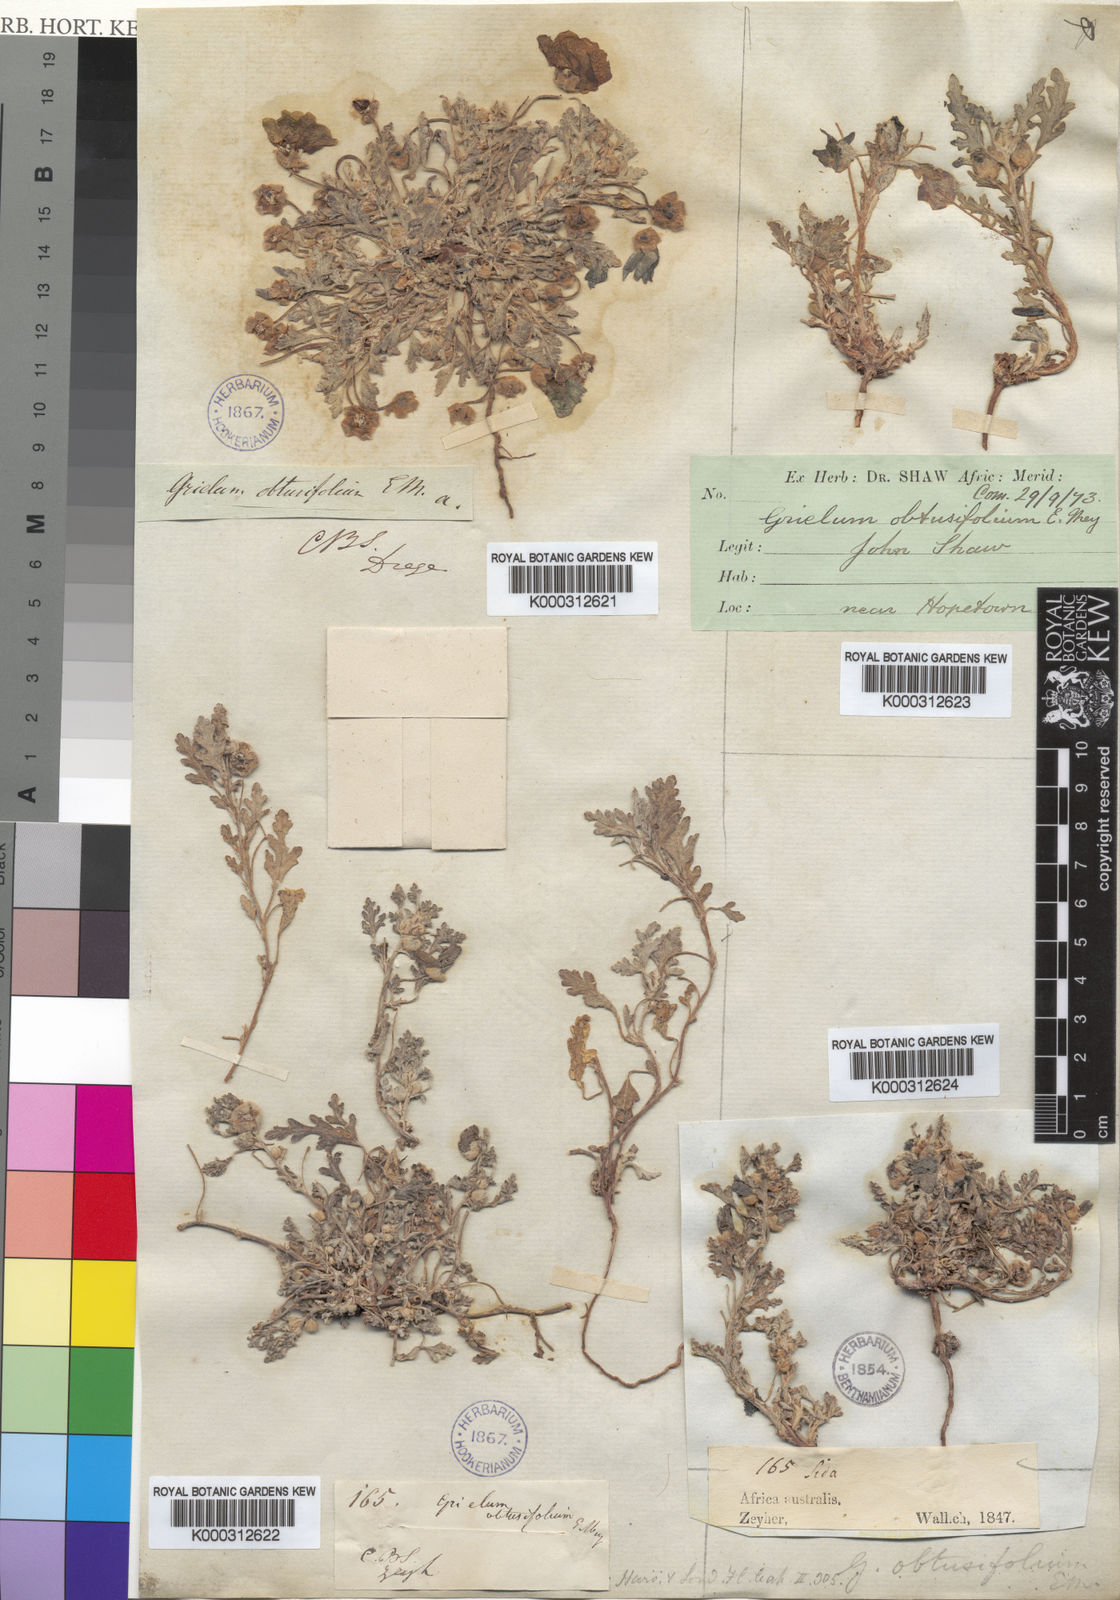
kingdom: Plantae
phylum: Tracheophyta
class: Magnoliopsida
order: Malvales
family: Neuradaceae
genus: Grielum
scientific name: Grielum
